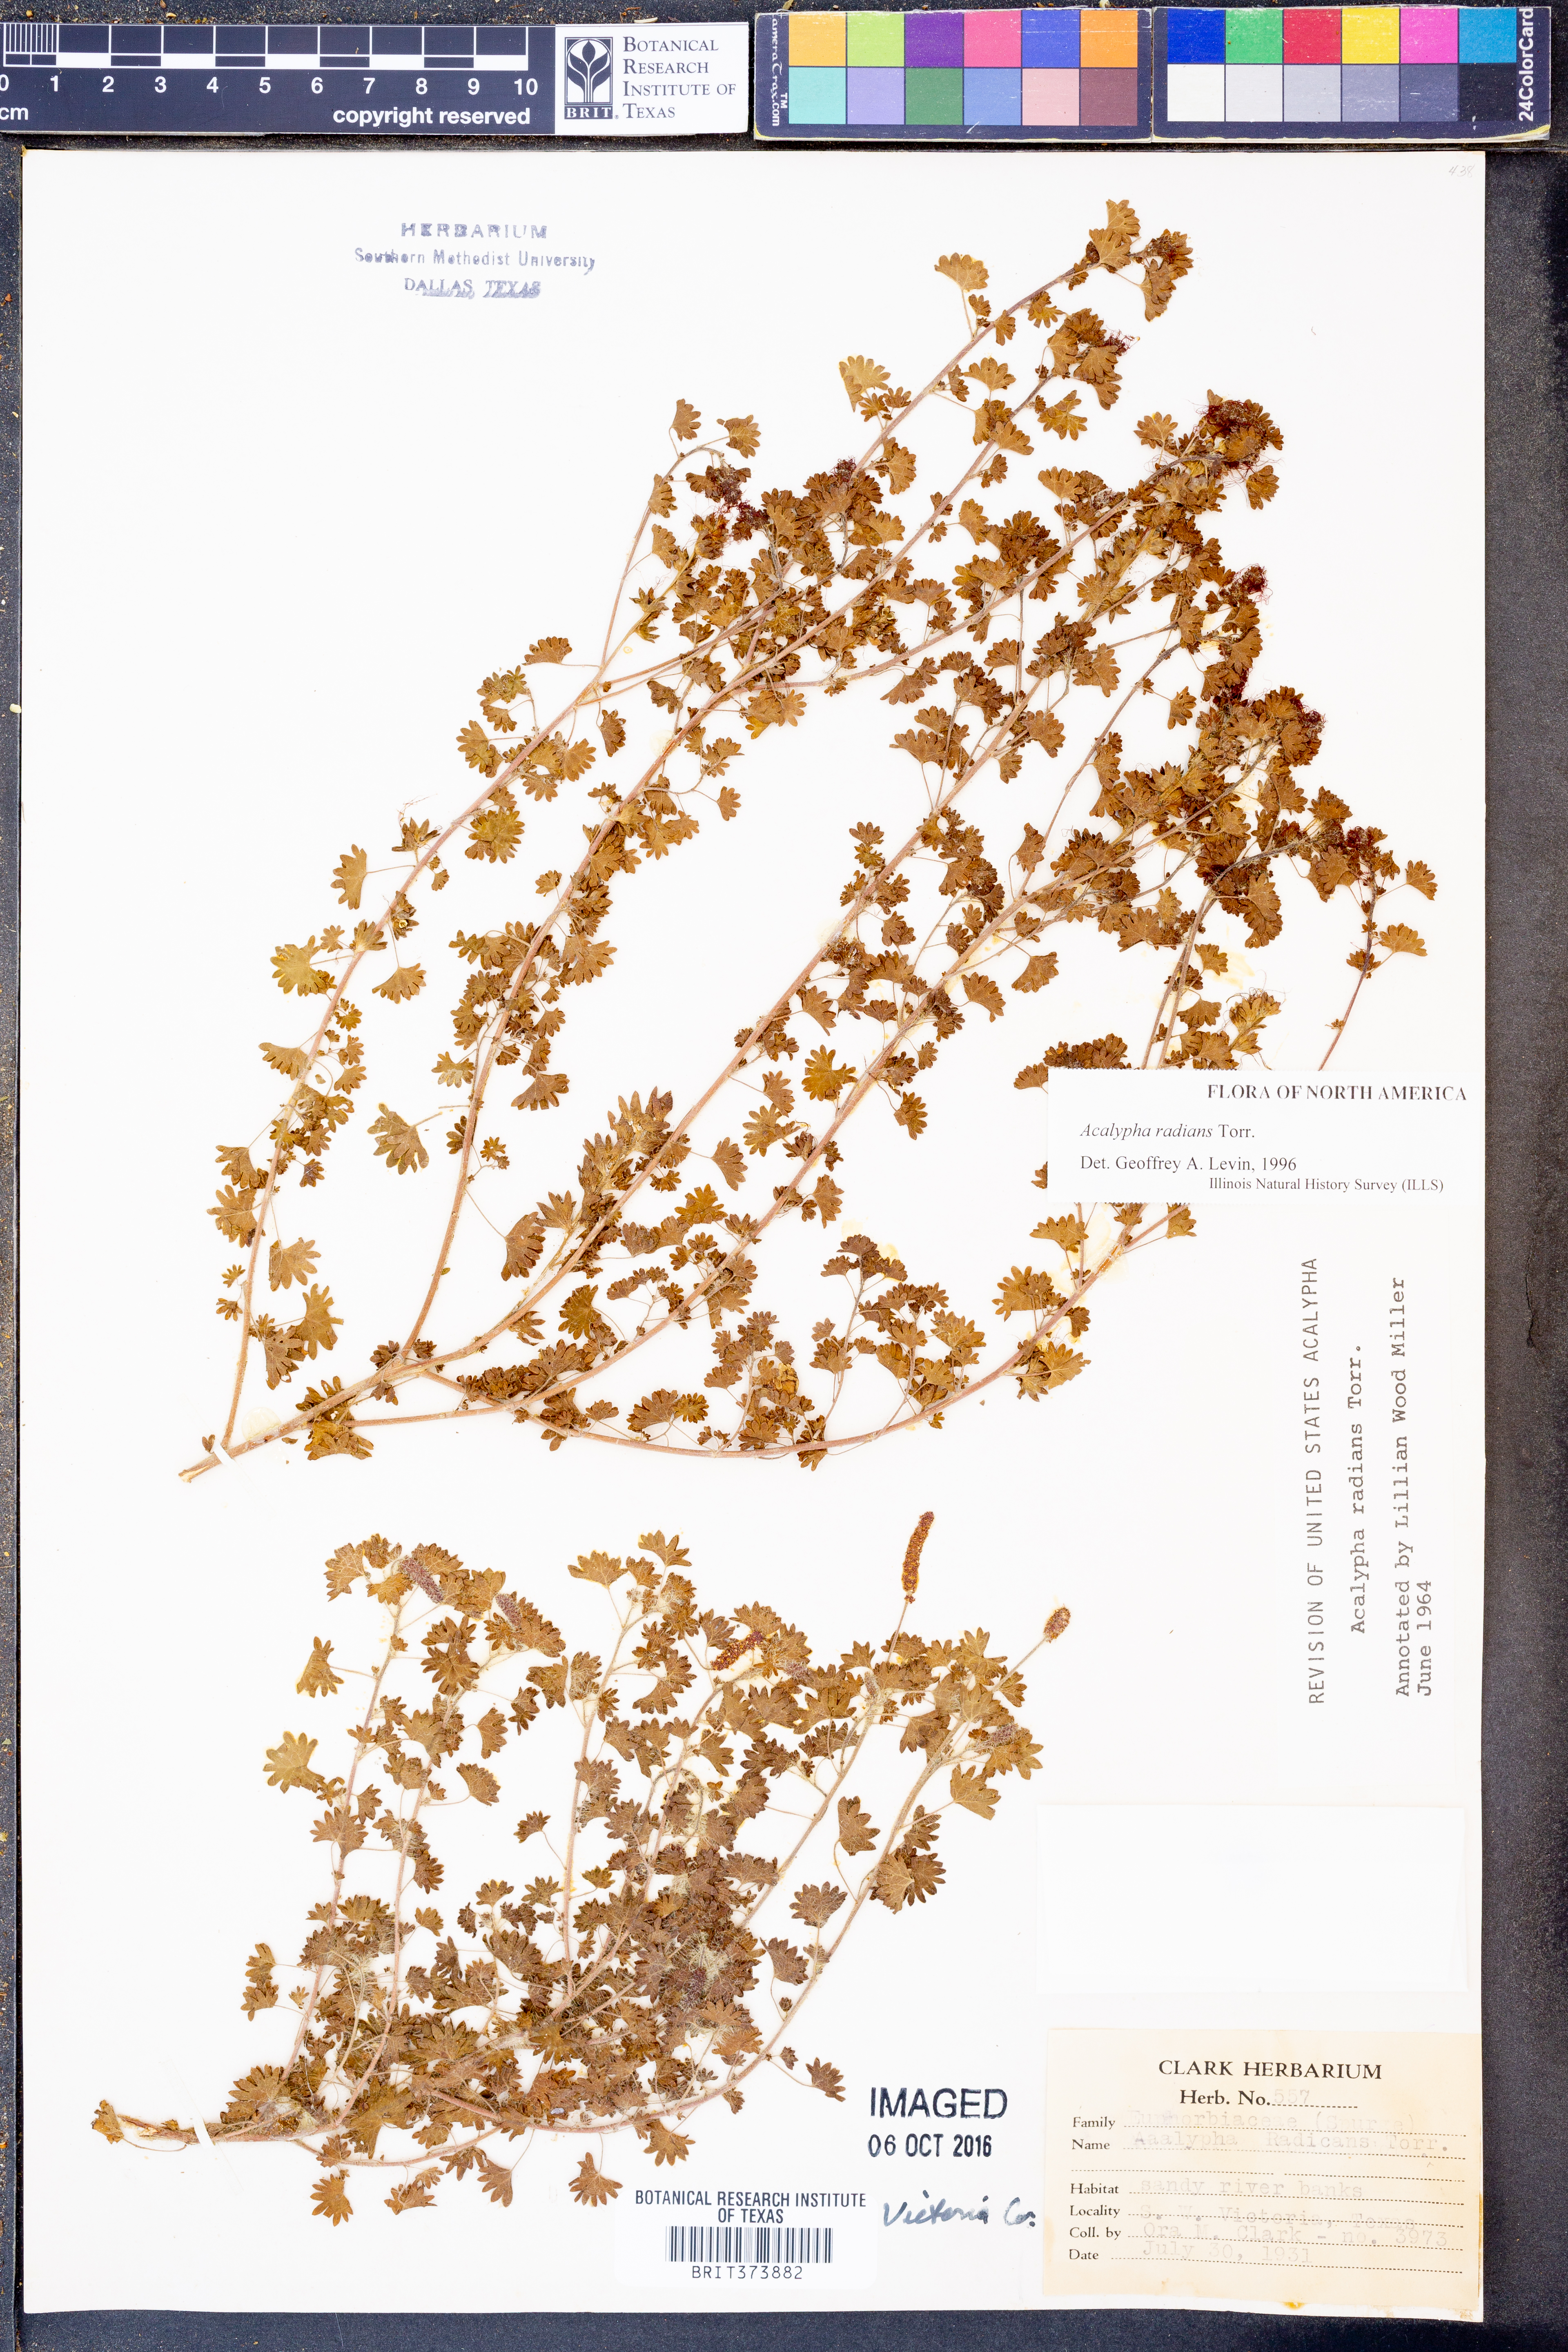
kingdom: Plantae
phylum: Tracheophyta
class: Magnoliopsida
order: Malpighiales
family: Euphorbiaceae
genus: Acalypha
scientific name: Acalypha radians
